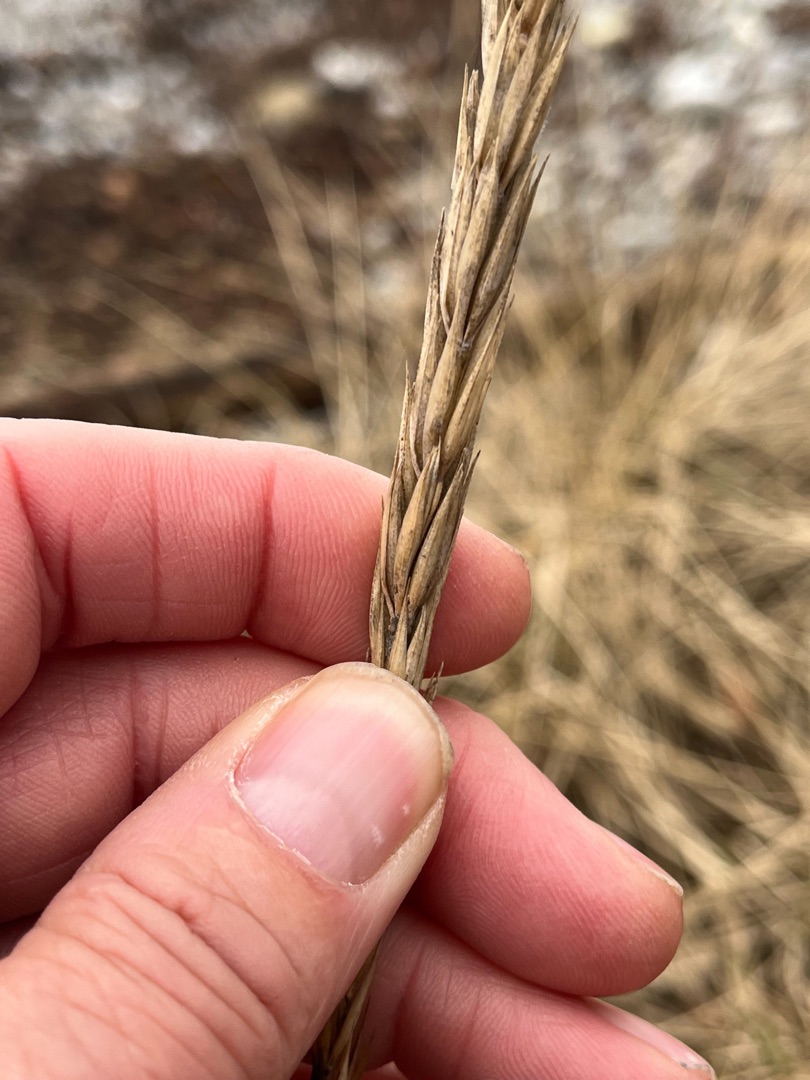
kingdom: Plantae
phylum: Tracheophyta
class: Liliopsida
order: Poales
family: Poaceae
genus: Leymus
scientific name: Leymus arenarius
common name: Marehalm
